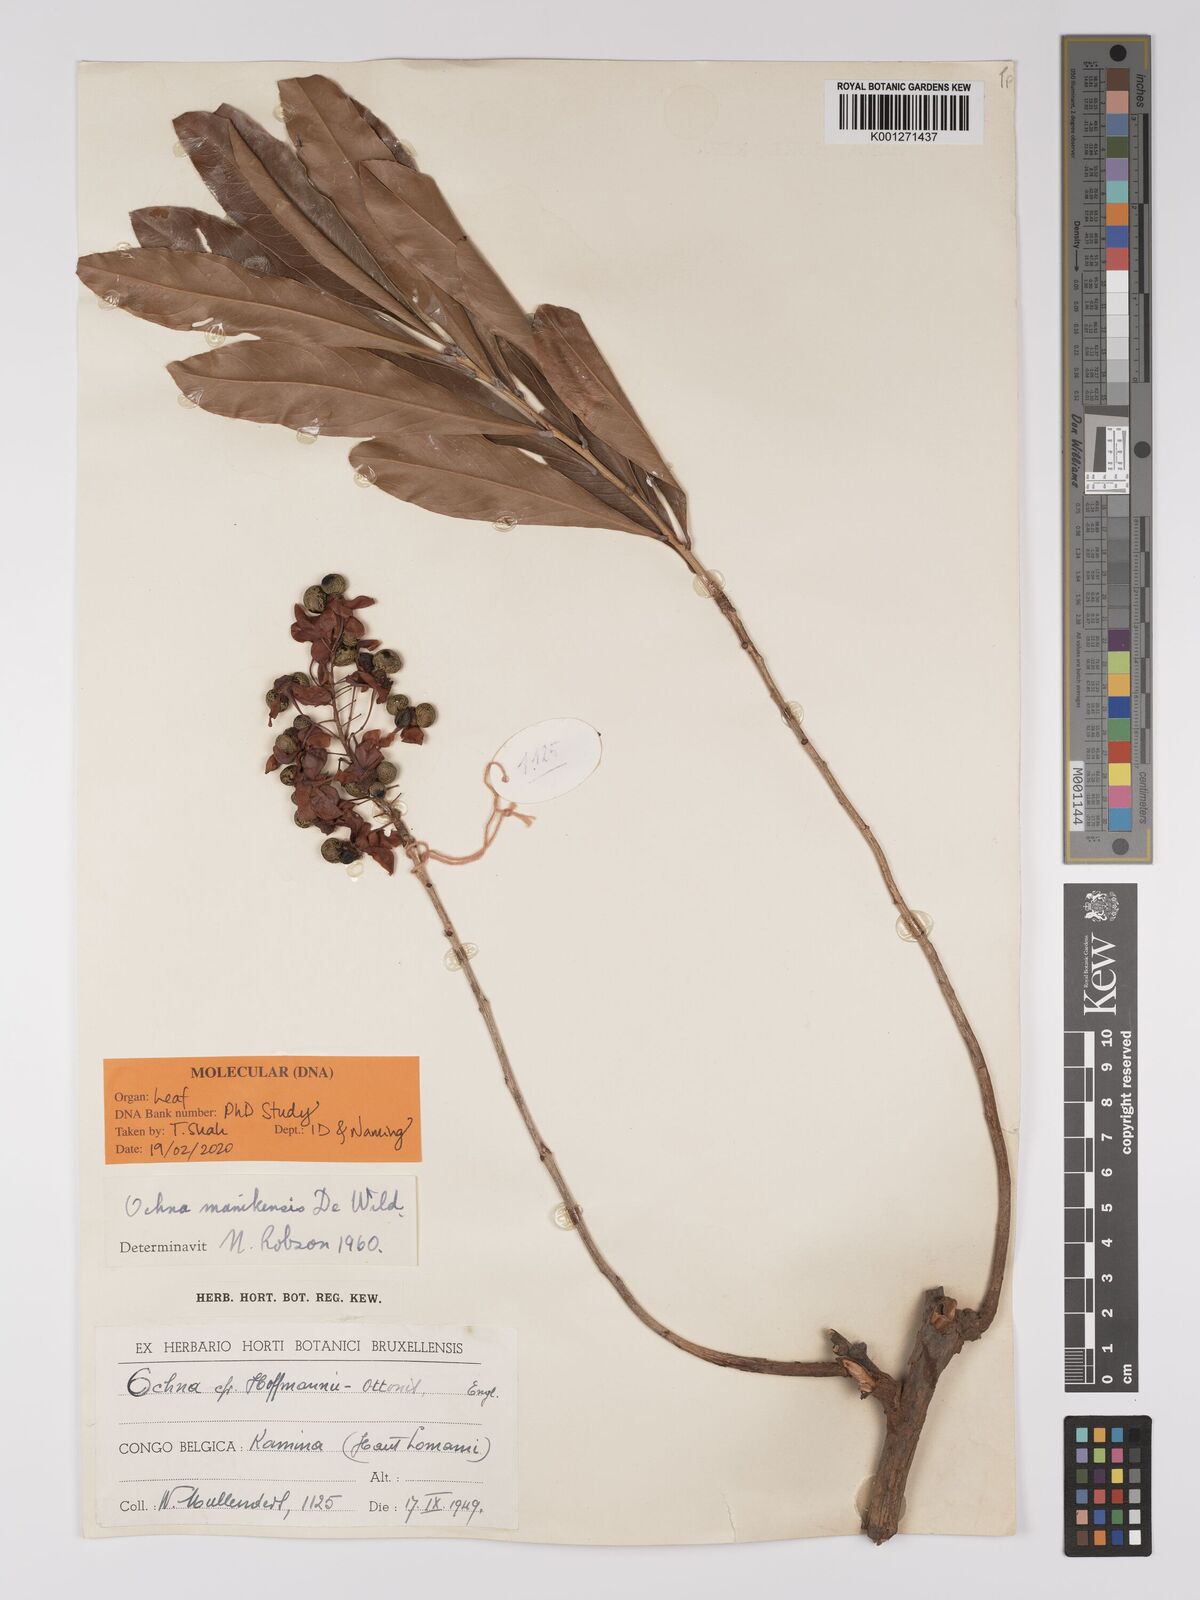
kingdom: Plantae
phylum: Tracheophyta
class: Magnoliopsida
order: Malpighiales
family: Ochnaceae
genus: Ochna
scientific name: Ochna manikensis
